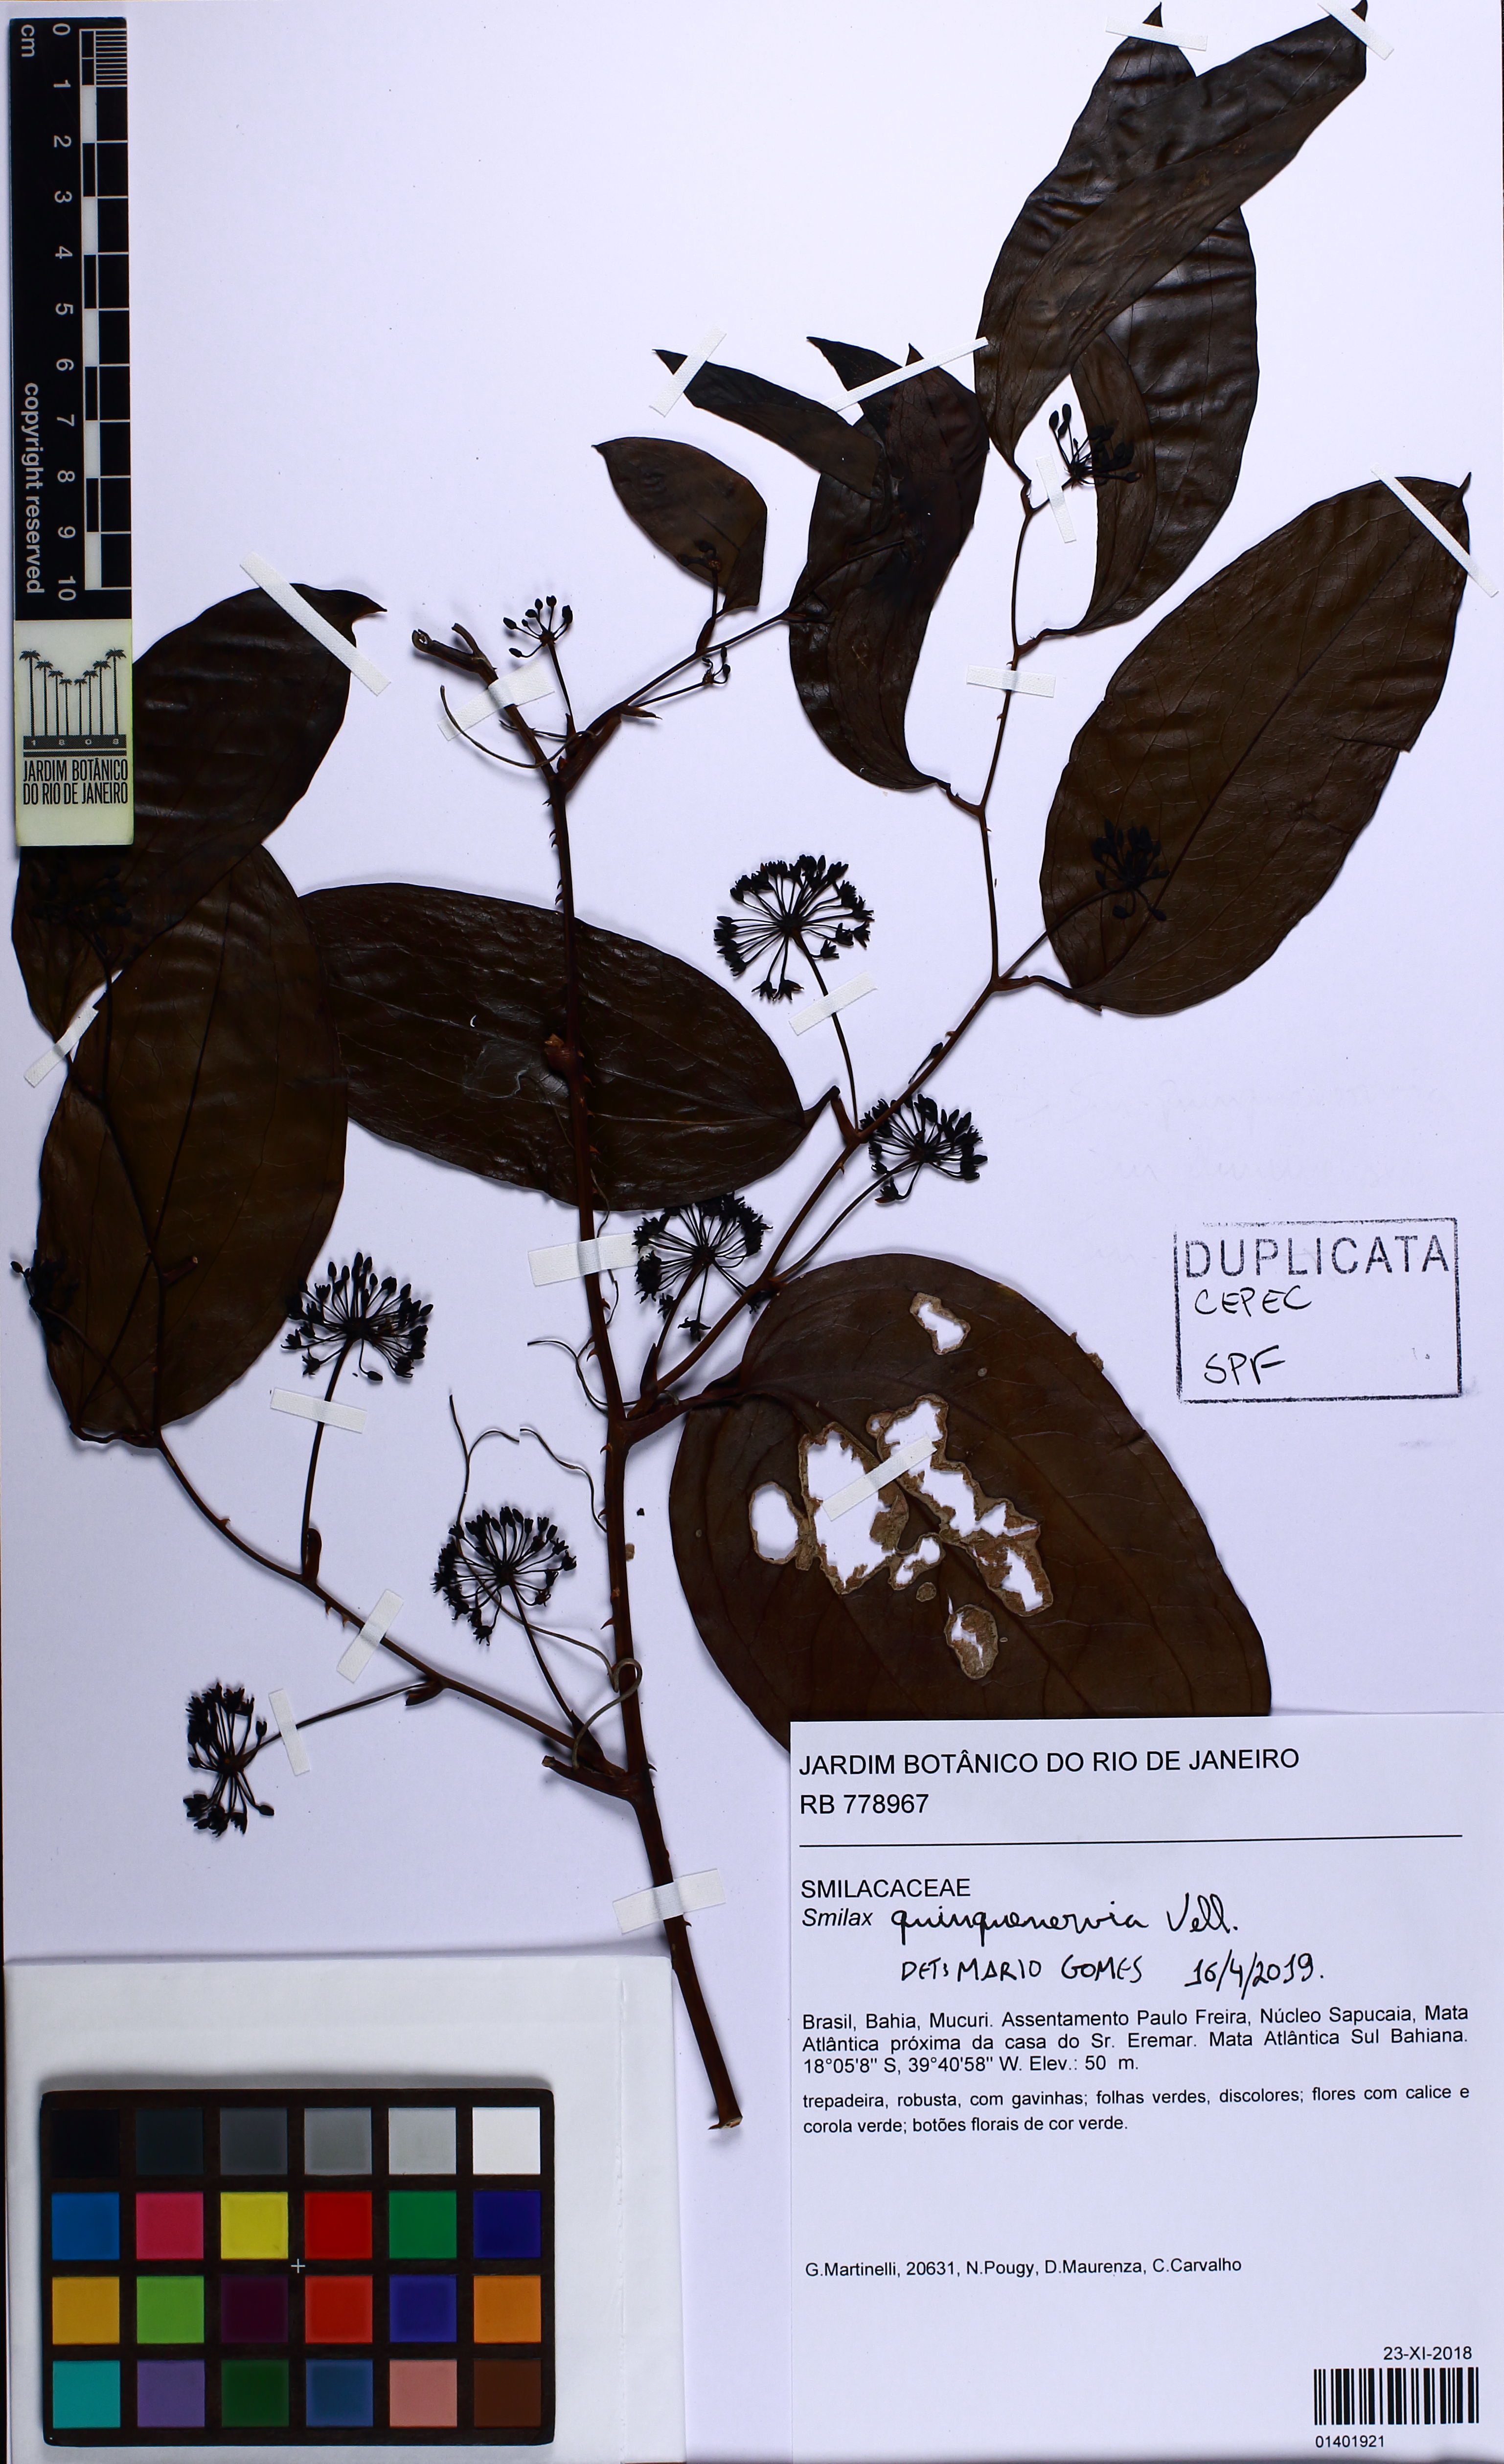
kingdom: Plantae
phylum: Tracheophyta
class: Liliopsida
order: Liliales
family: Smilacaceae
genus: Smilax
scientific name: Smilax quinquenervia
